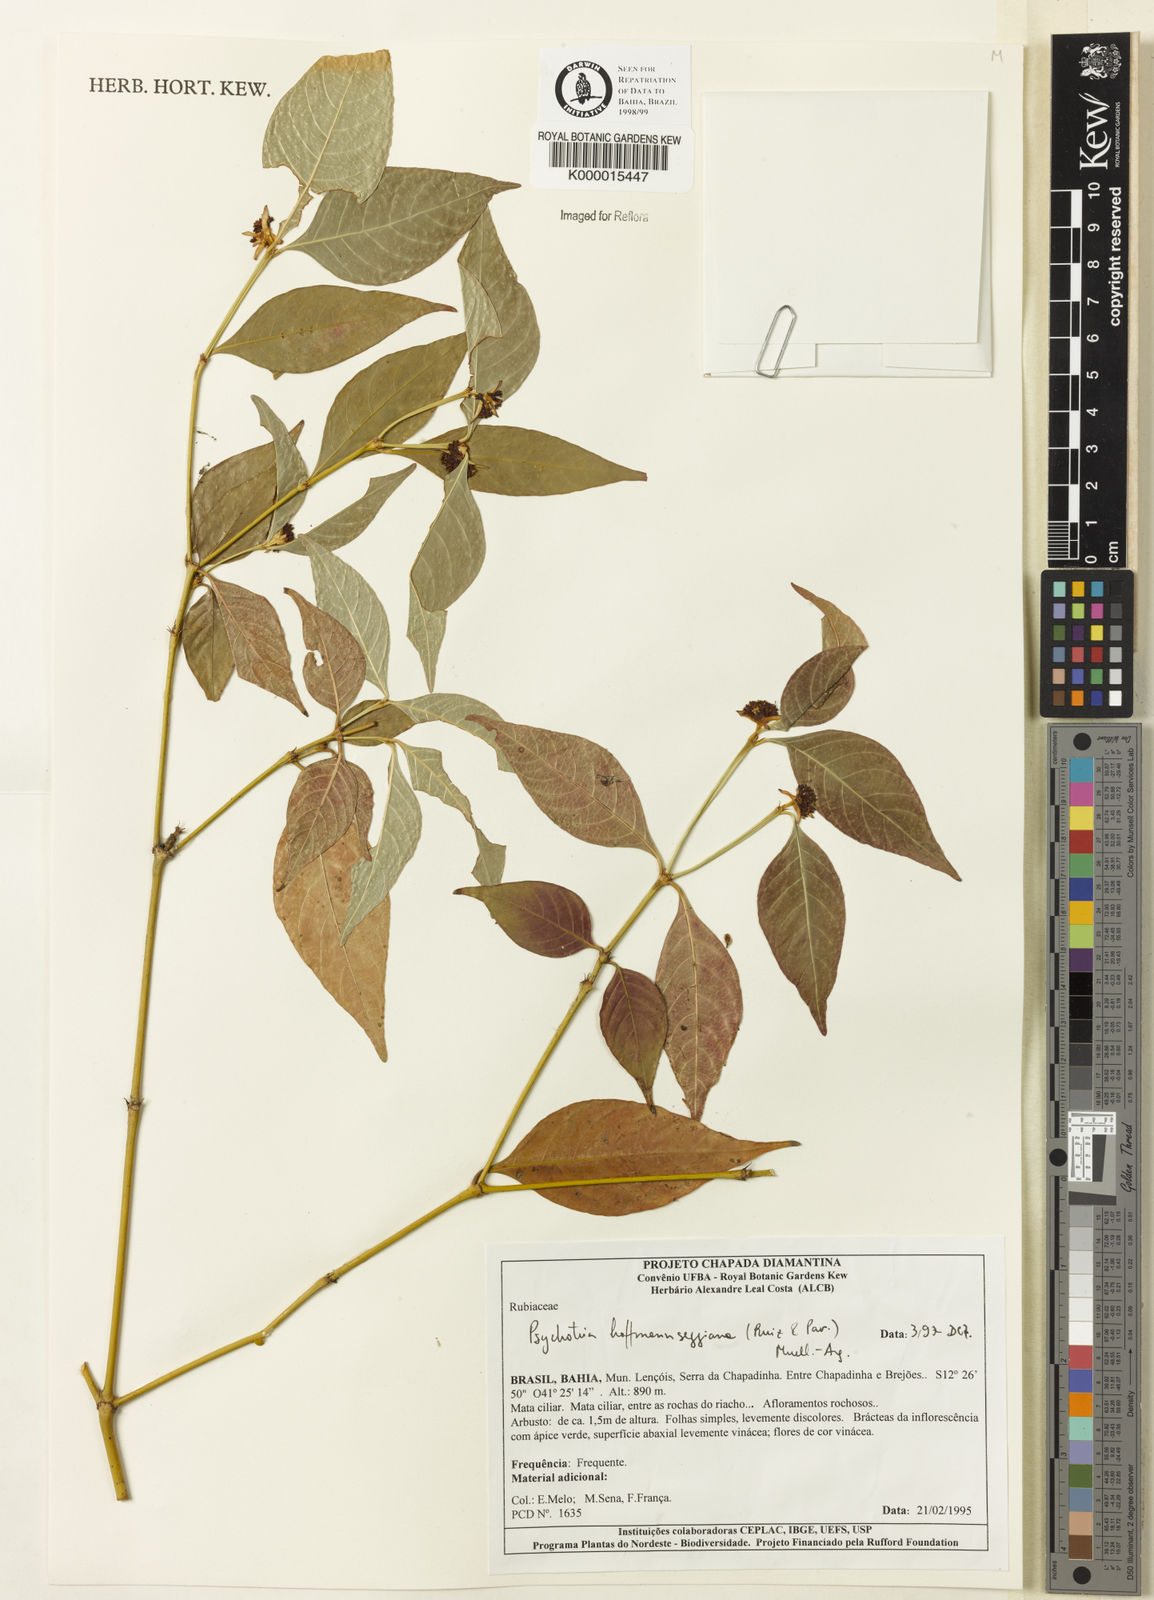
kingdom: Plantae
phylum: Tracheophyta
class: Magnoliopsida
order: Gentianales
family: Rubiaceae
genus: Psychotria
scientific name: Psychotria
